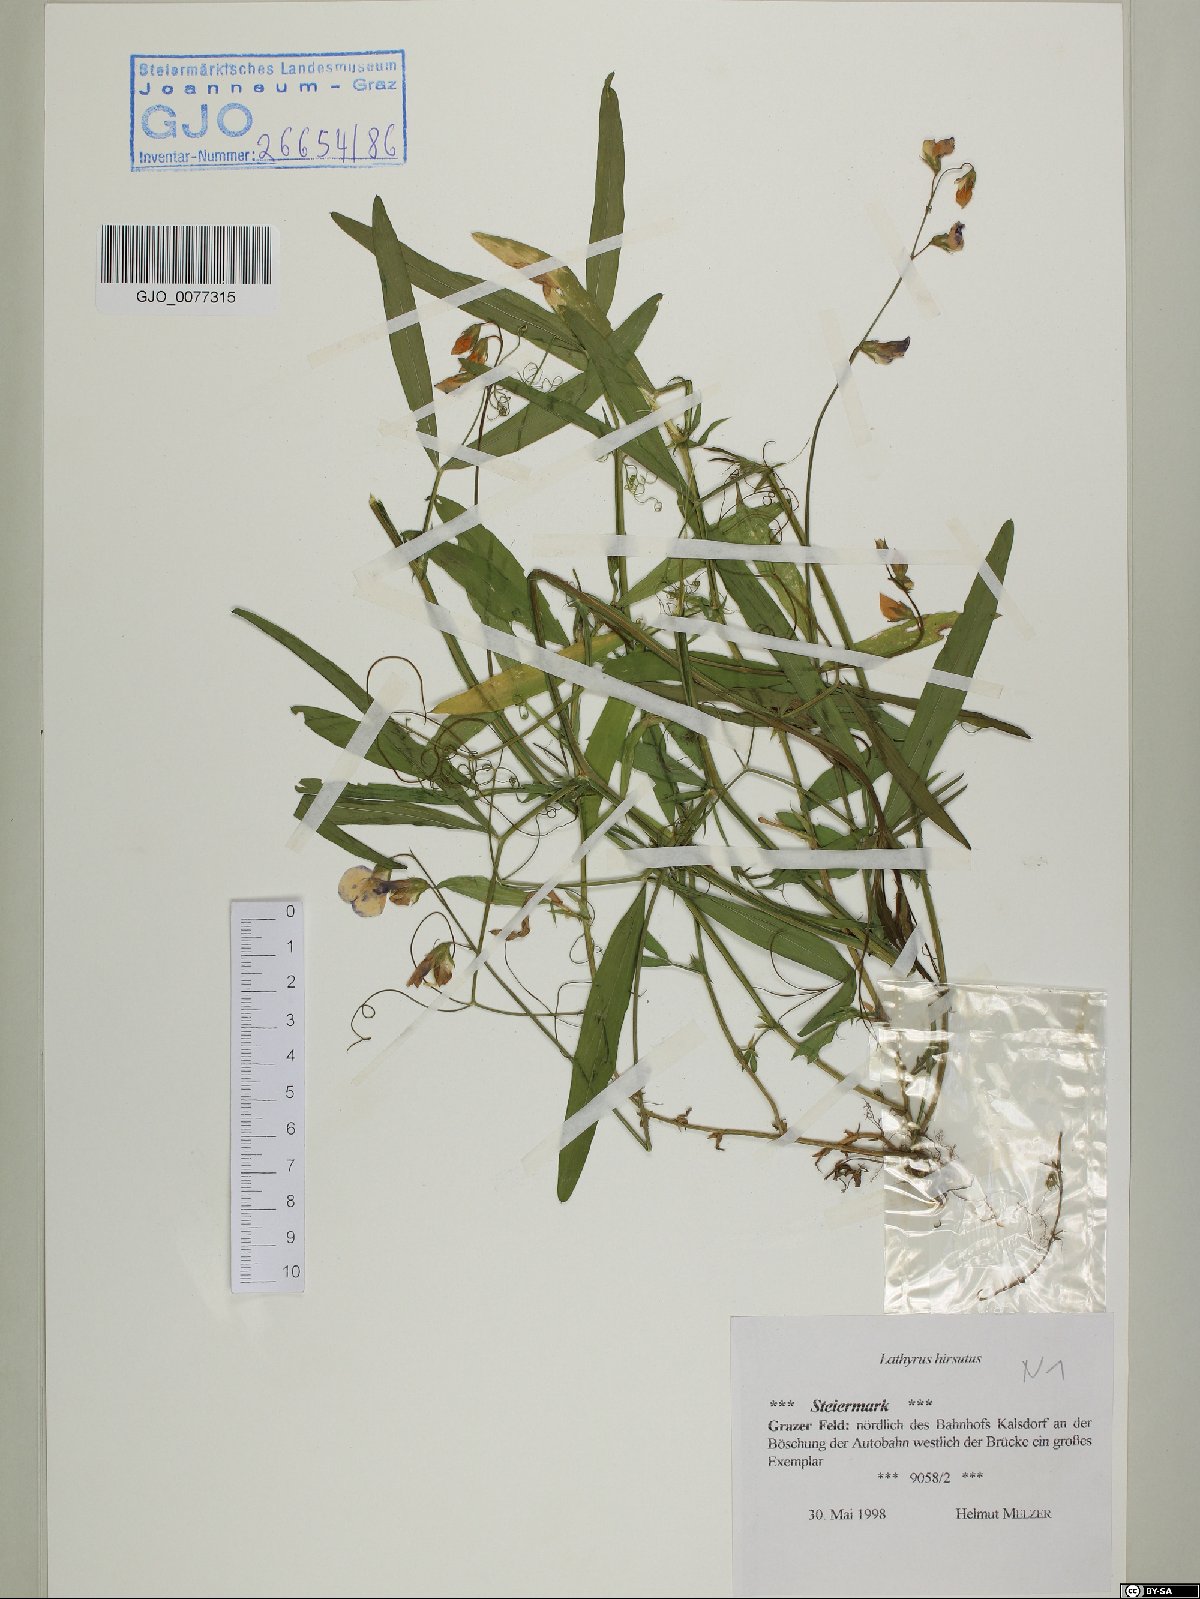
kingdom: Plantae
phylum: Tracheophyta
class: Magnoliopsida
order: Fabales
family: Fabaceae
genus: Lathyrus
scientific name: Lathyrus hirsutus
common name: Hairy vetchling
